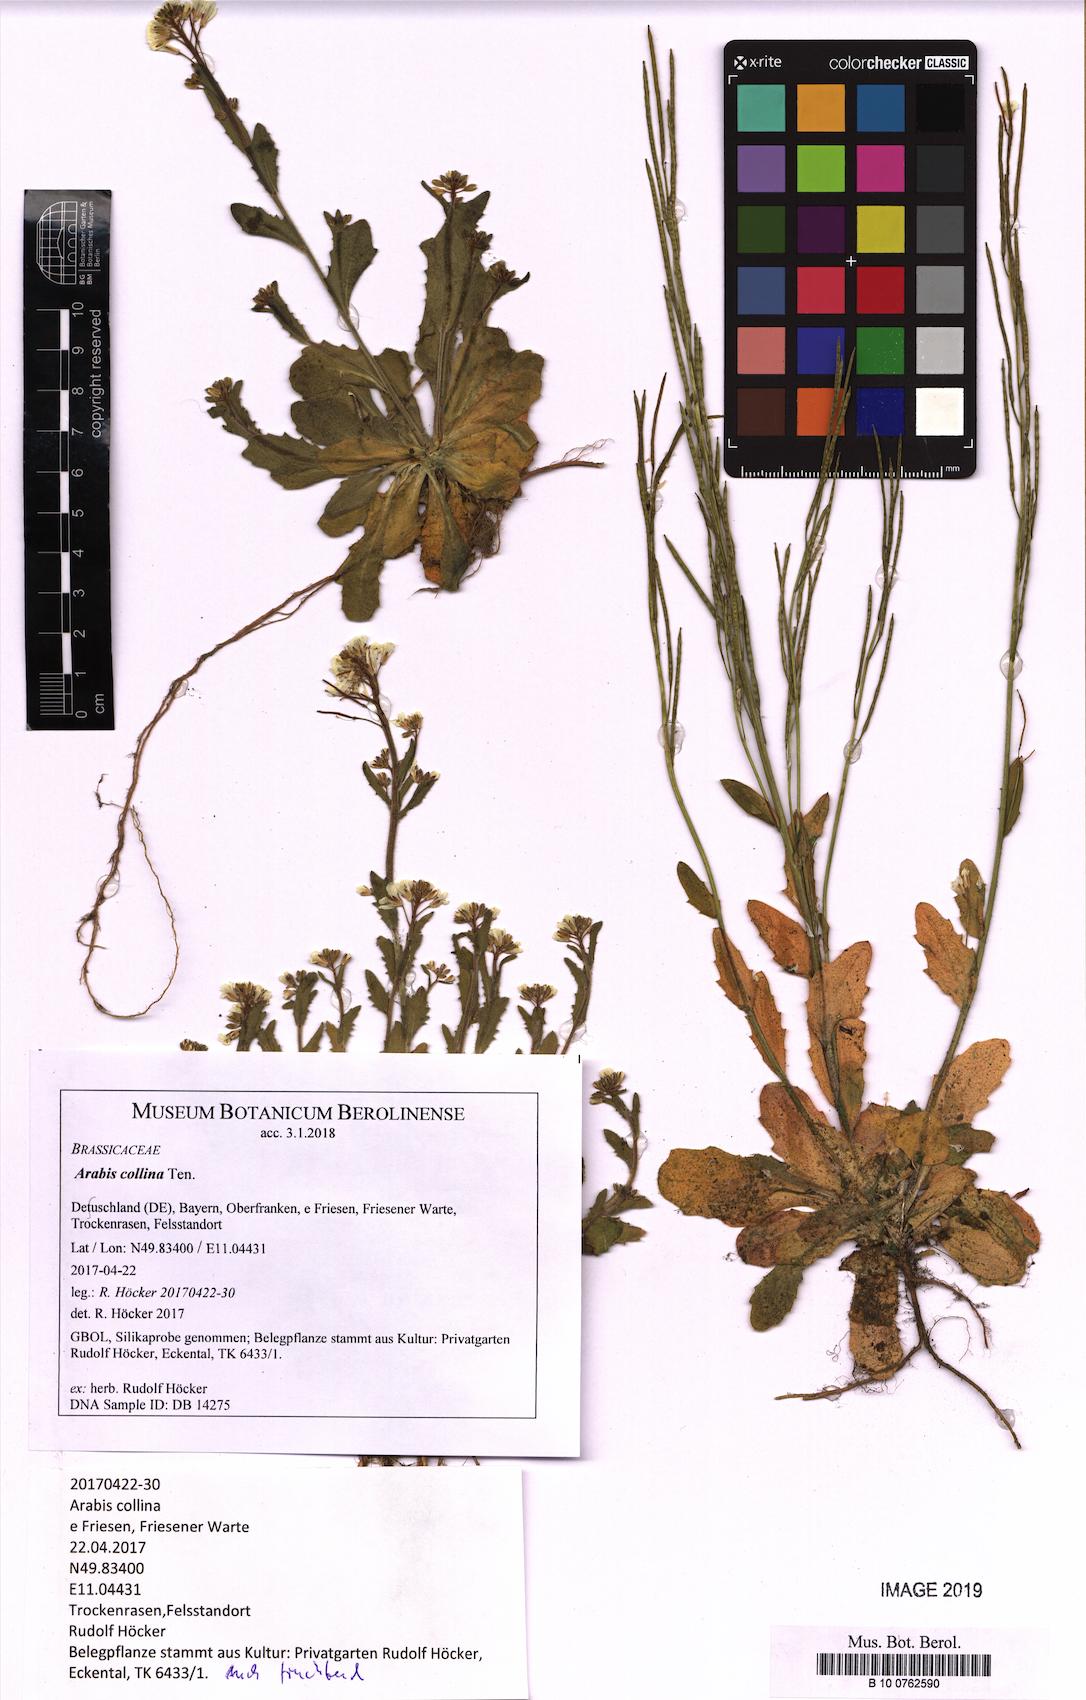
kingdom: Plantae
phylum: Tracheophyta
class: Magnoliopsida
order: Brassicales
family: Brassicaceae
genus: Arabis
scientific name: Arabis collina
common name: Rosy cress
